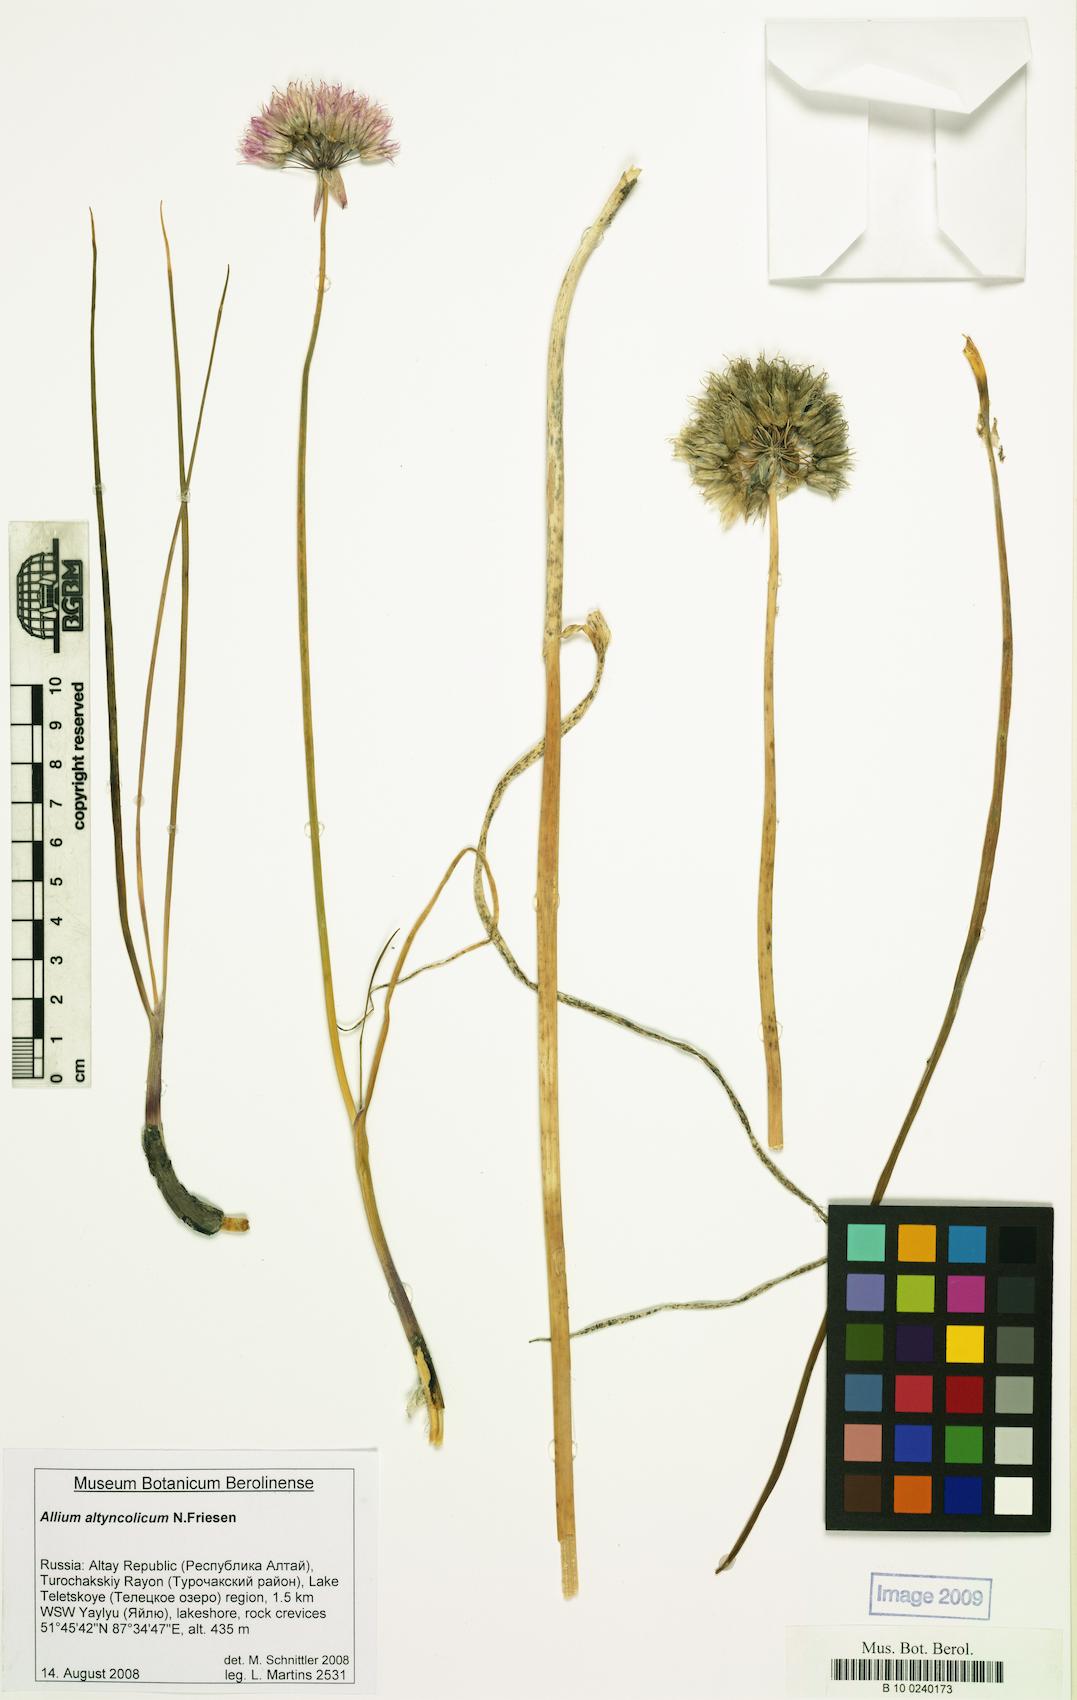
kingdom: Plantae
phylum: Tracheophyta
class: Liliopsida
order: Asparagales
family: Amaryllidaceae
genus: Allium
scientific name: Allium altyncolicum
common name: Altynkol chive
